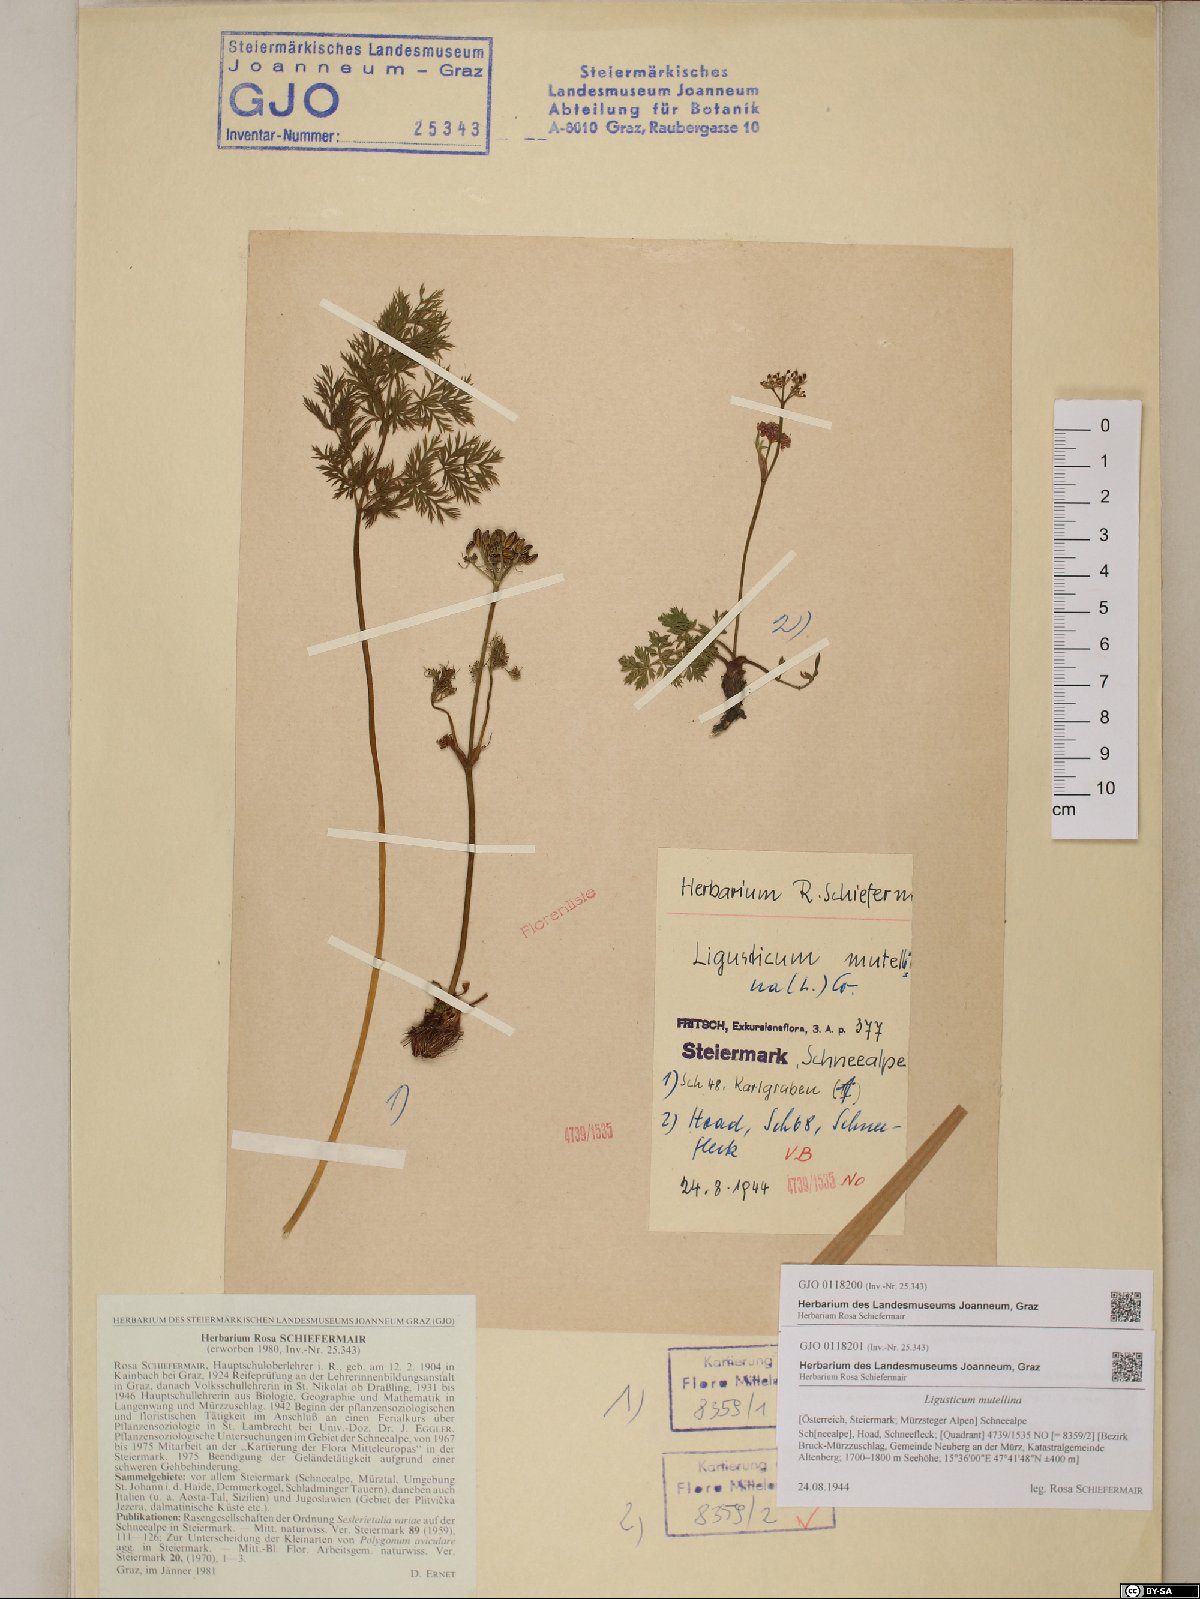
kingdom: Plantae
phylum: Tracheophyta
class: Magnoliopsida
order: Apiales
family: Apiaceae
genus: Mutellina
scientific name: Mutellina adonidifolia
